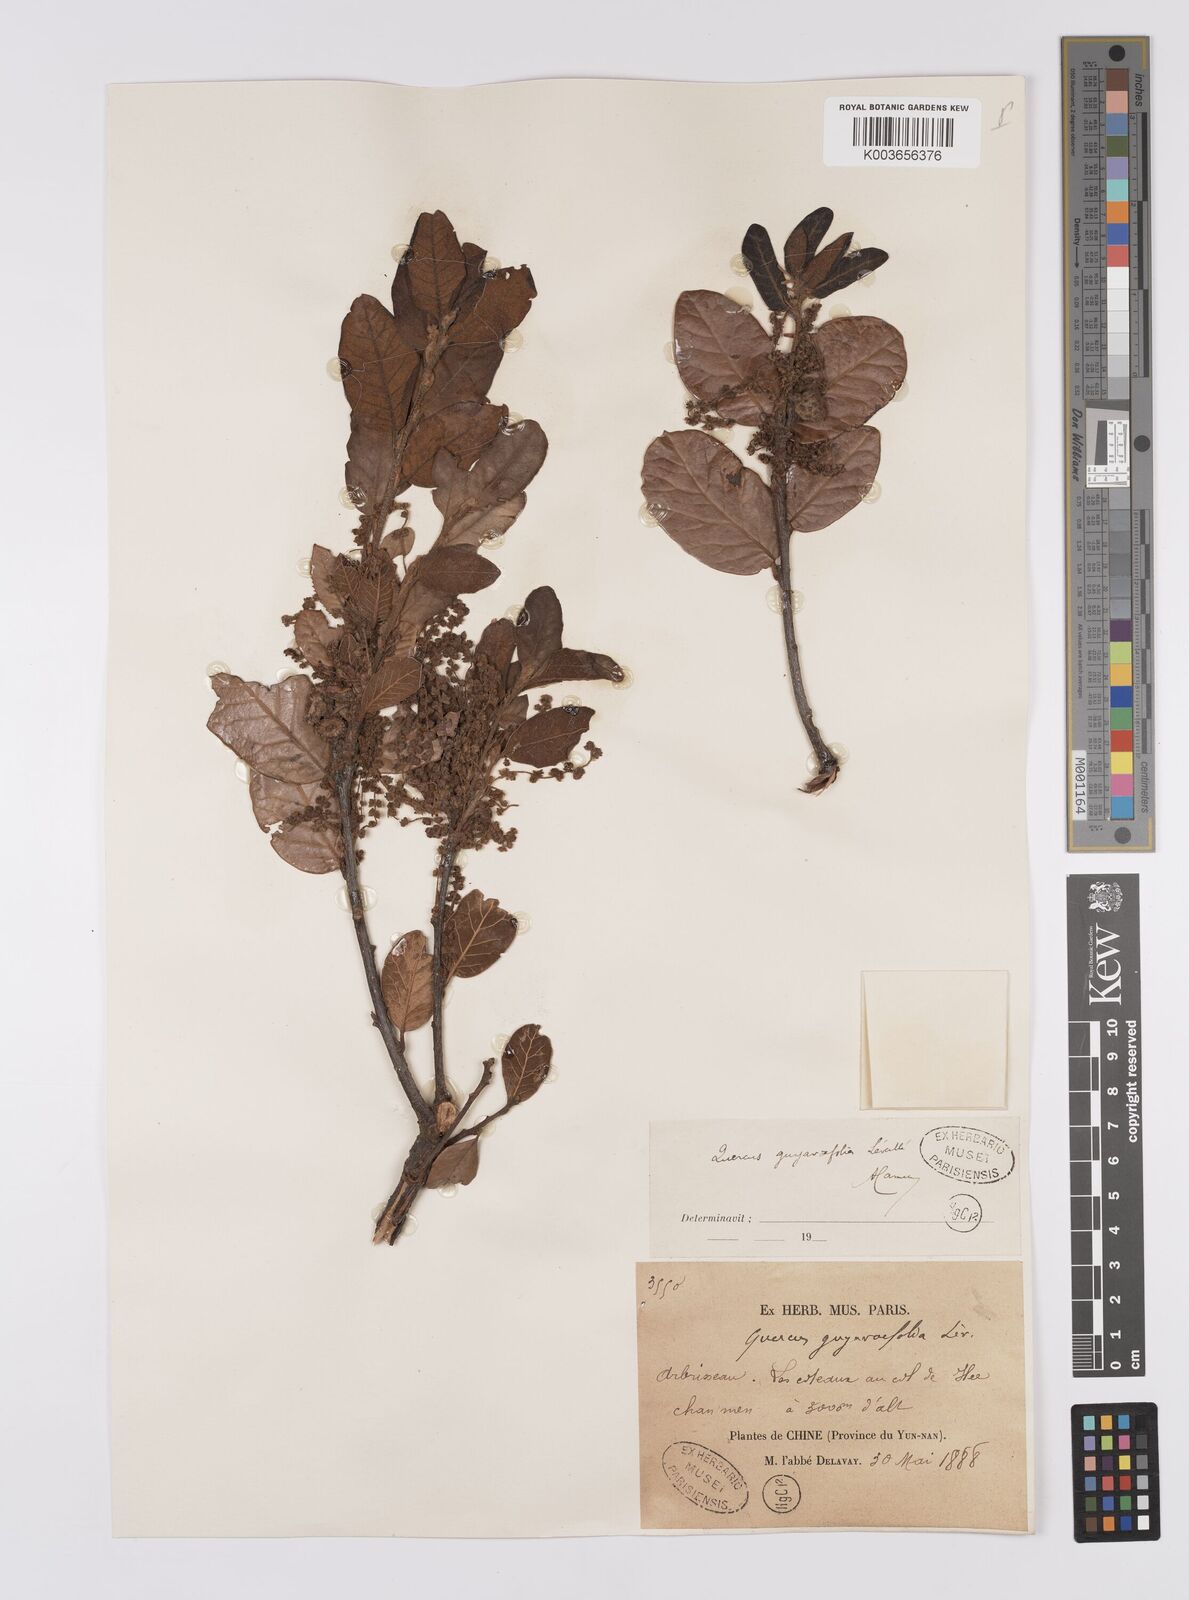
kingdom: Plantae
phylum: Tracheophyta
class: Magnoliopsida
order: Fagales
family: Fagaceae
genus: Quercus
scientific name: Quercus guyavifolia
